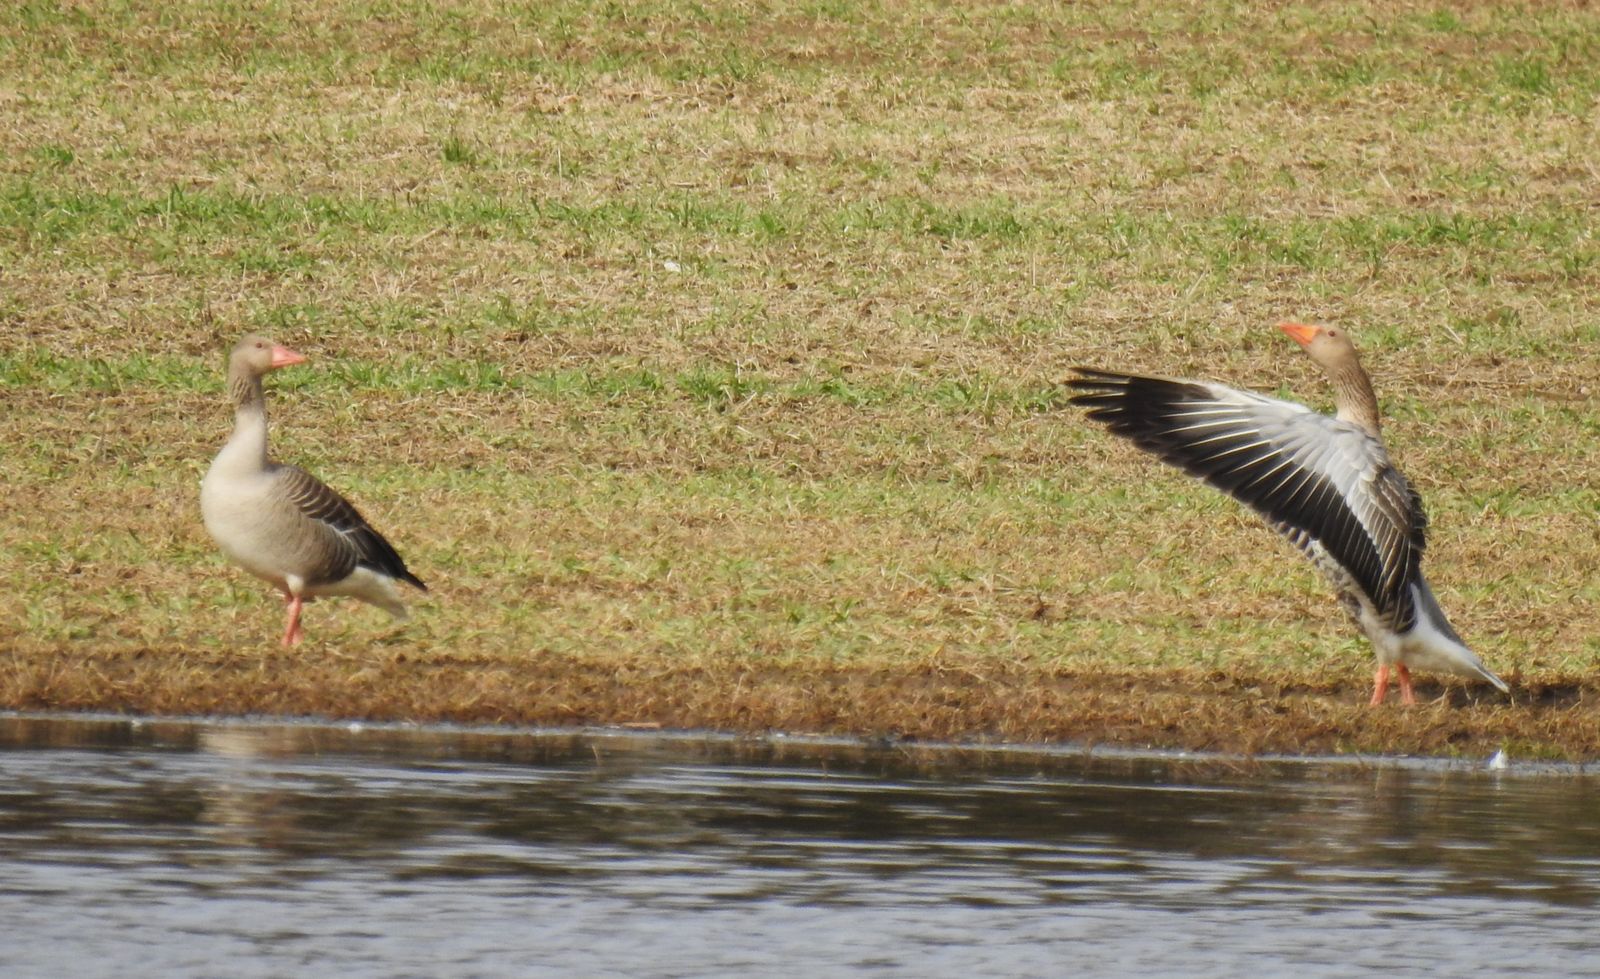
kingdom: Animalia
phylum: Chordata
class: Aves
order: Anseriformes
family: Anatidae
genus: Anser
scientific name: Anser anser
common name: Greylag goose
